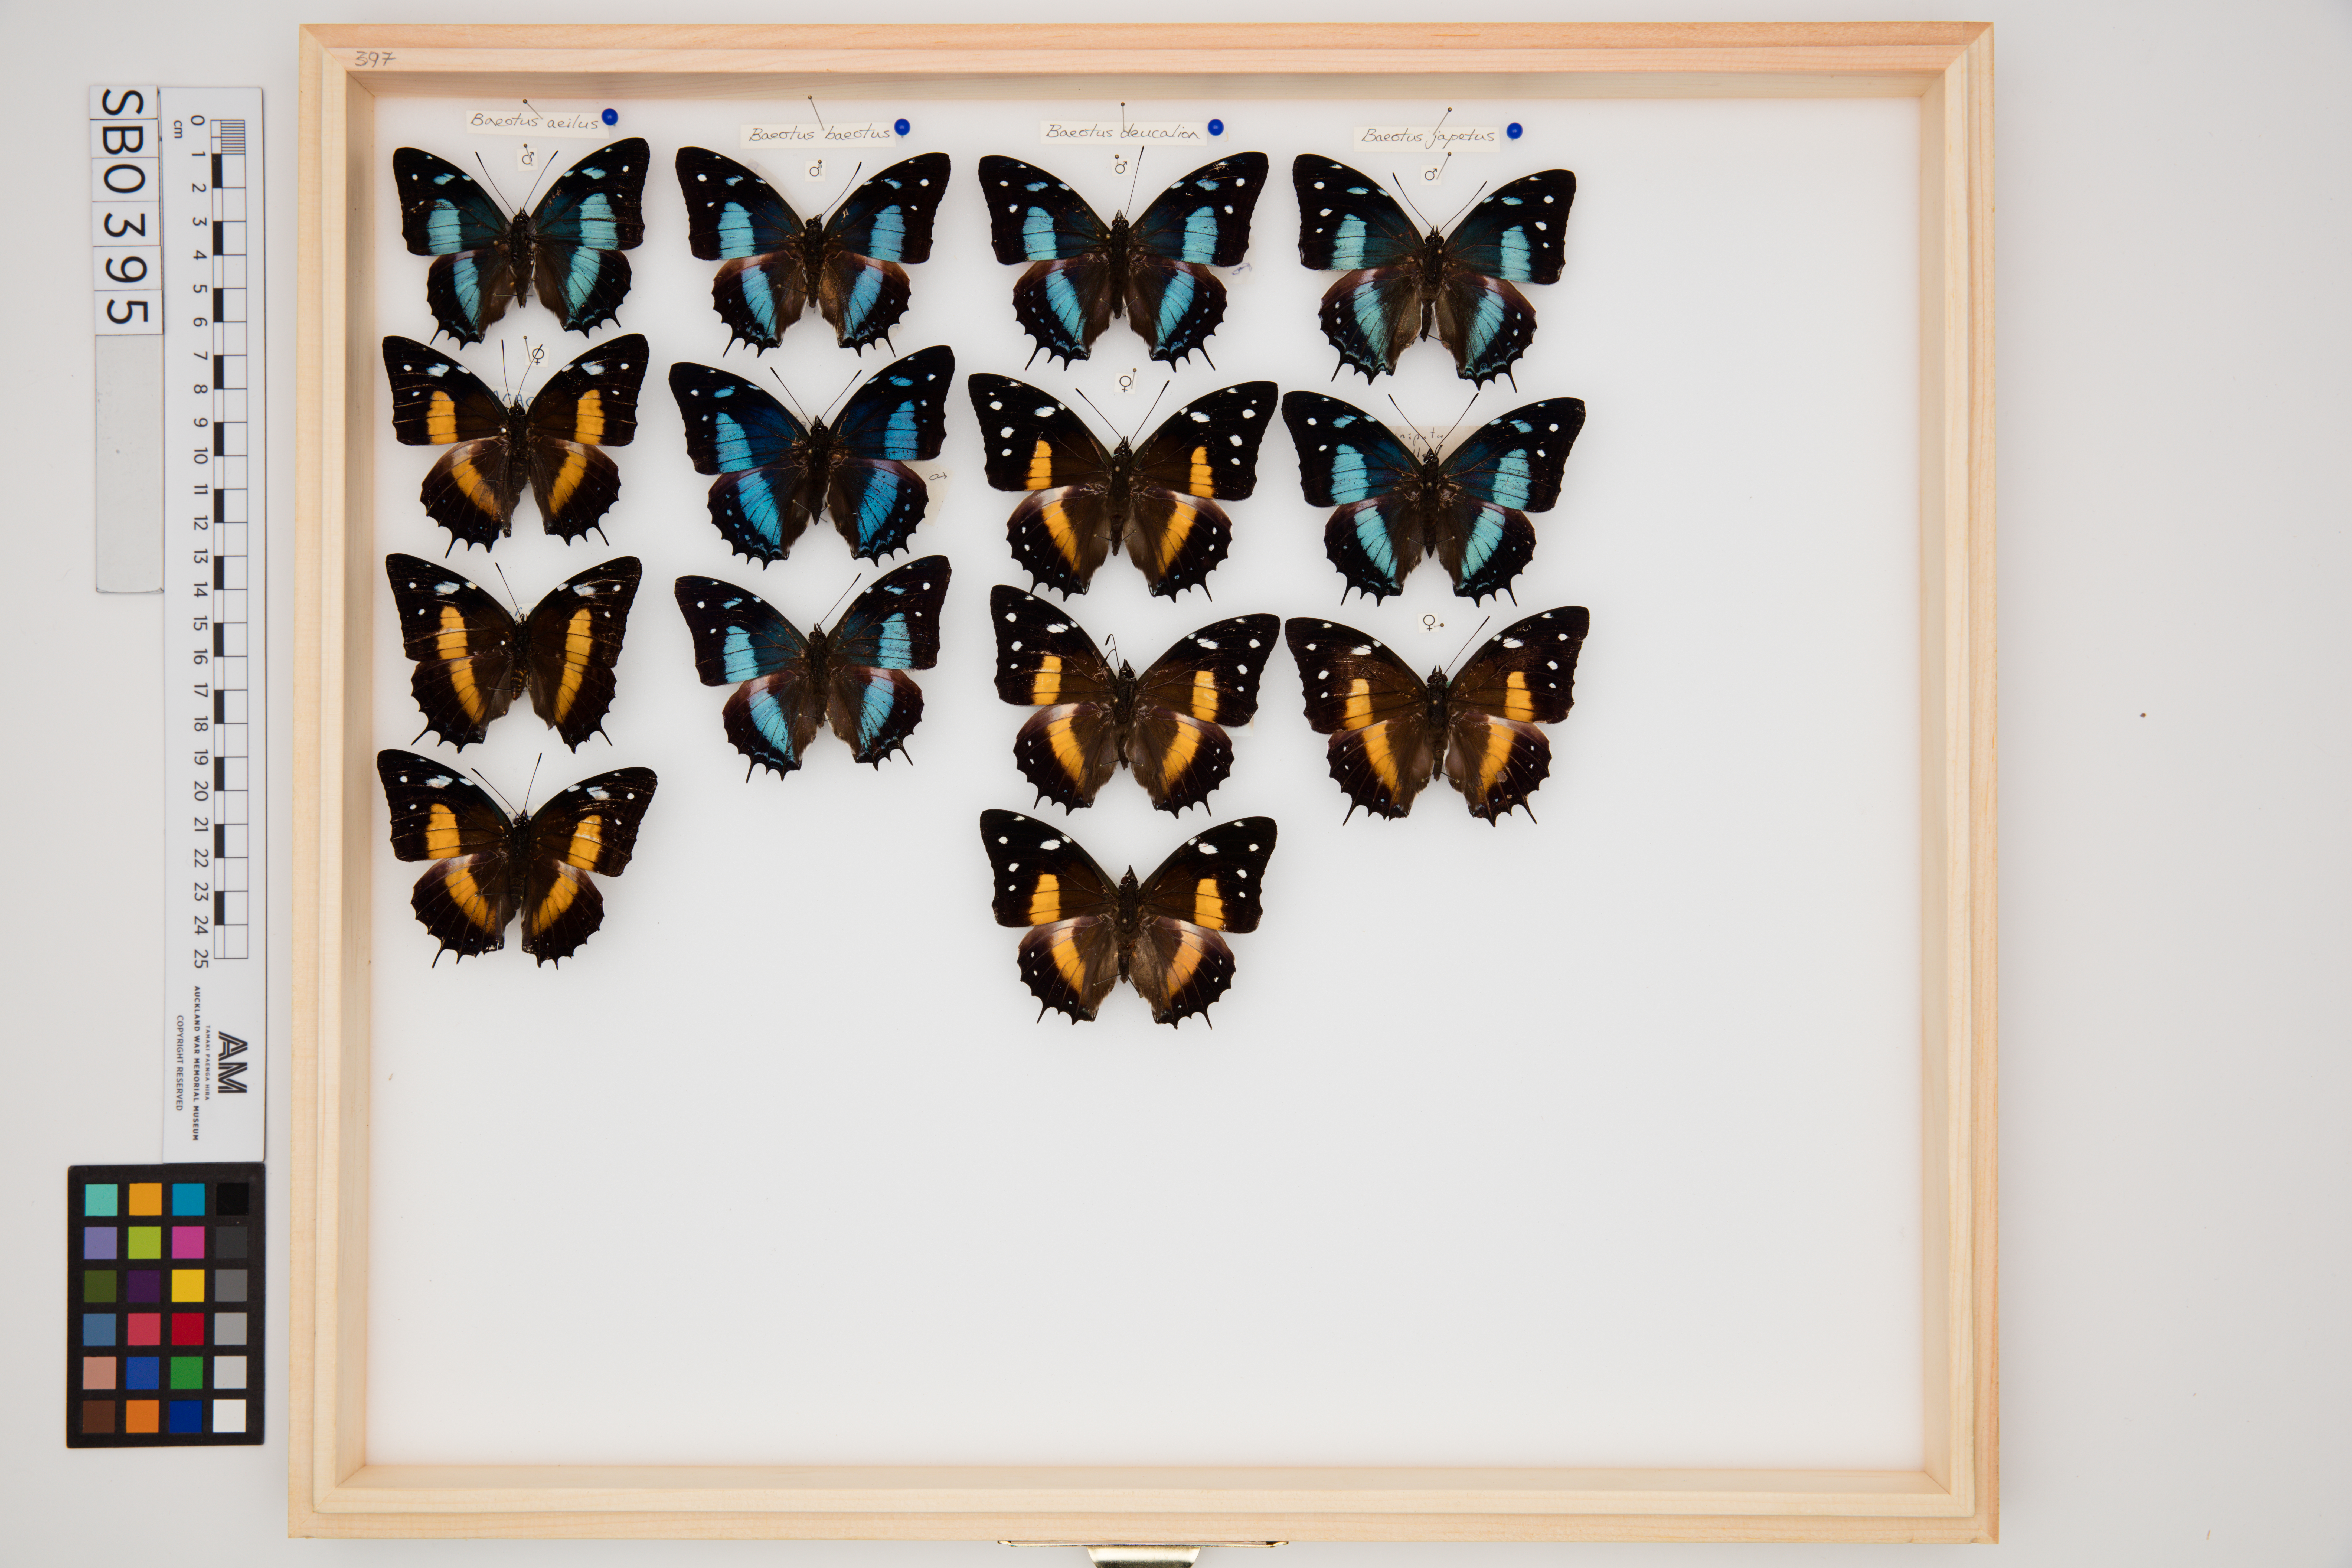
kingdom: Animalia
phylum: Arthropoda
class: Insecta
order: Lepidoptera
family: Nymphalidae
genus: Baeotus
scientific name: Baeotus aeilus
